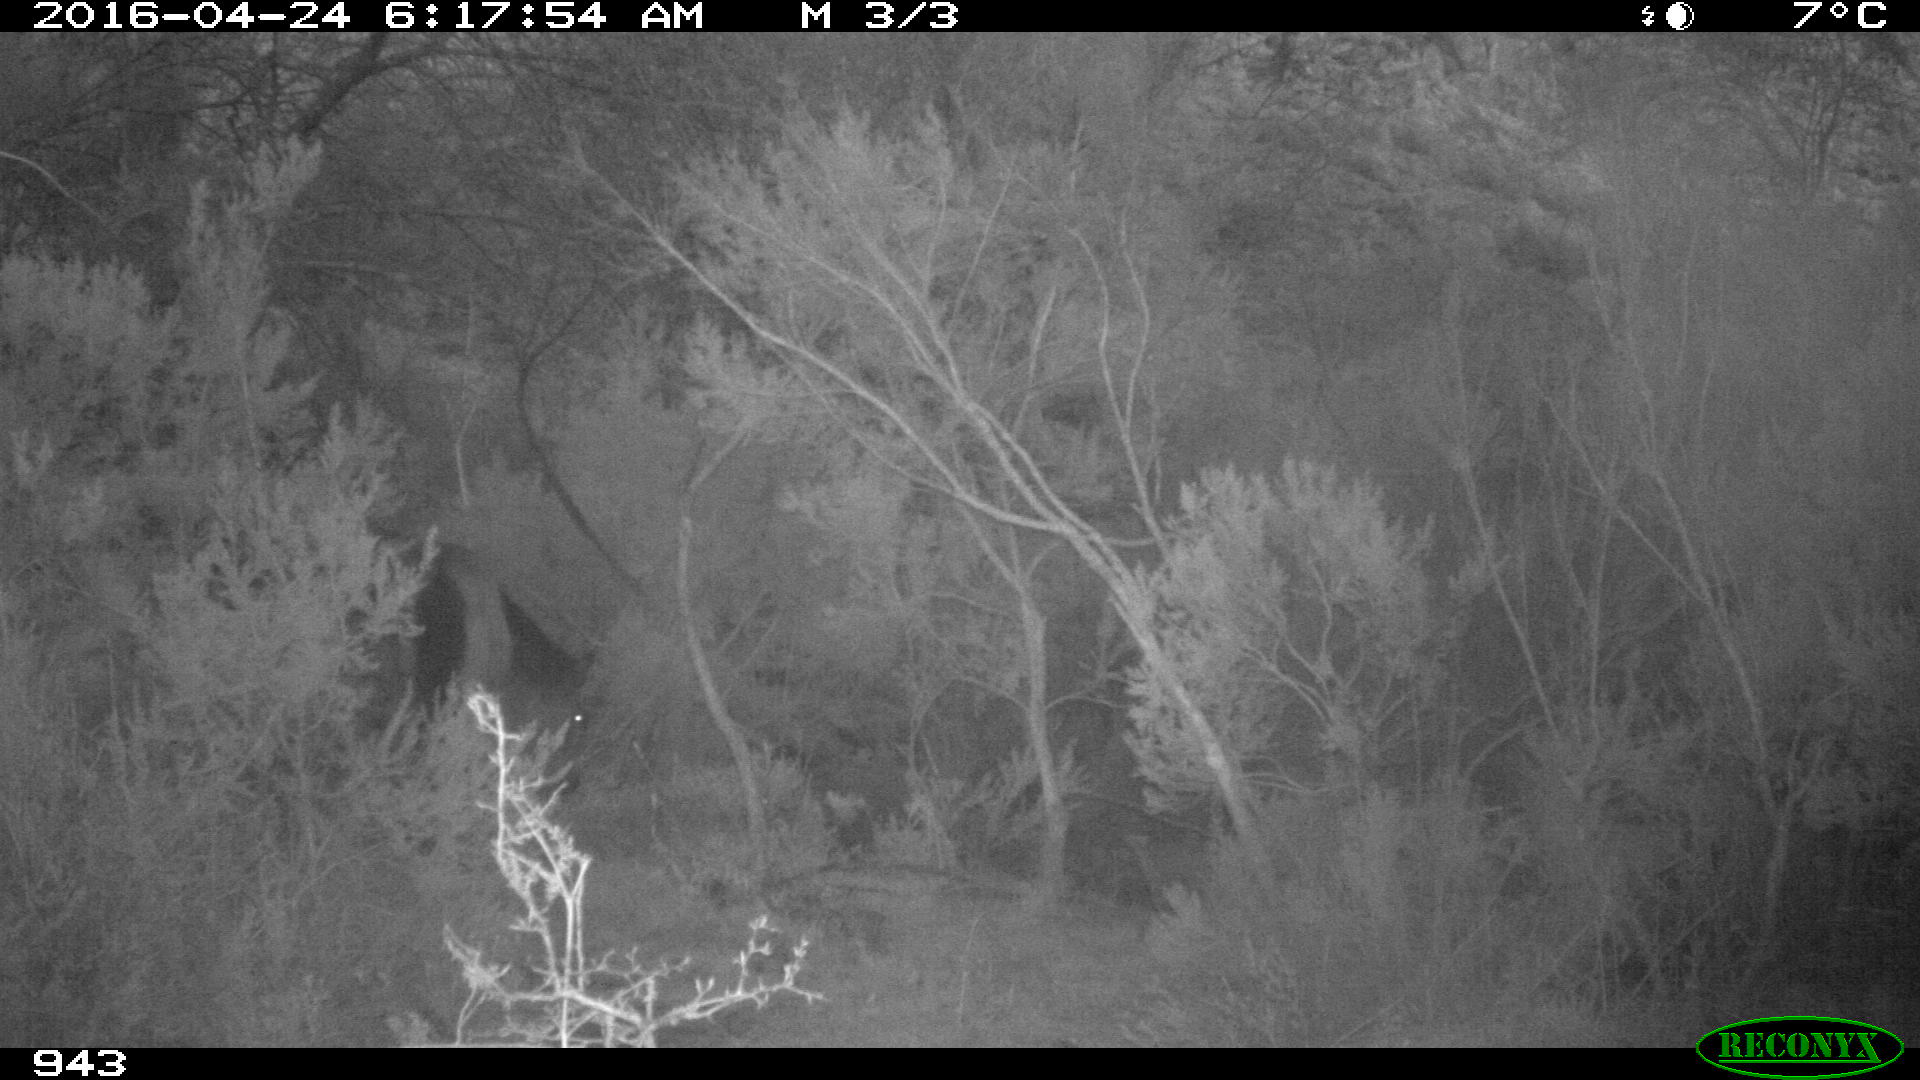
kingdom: Animalia
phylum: Chordata
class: Mammalia
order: Perissodactyla
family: Equidae
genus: Equus
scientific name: Equus caballus
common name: Horse
